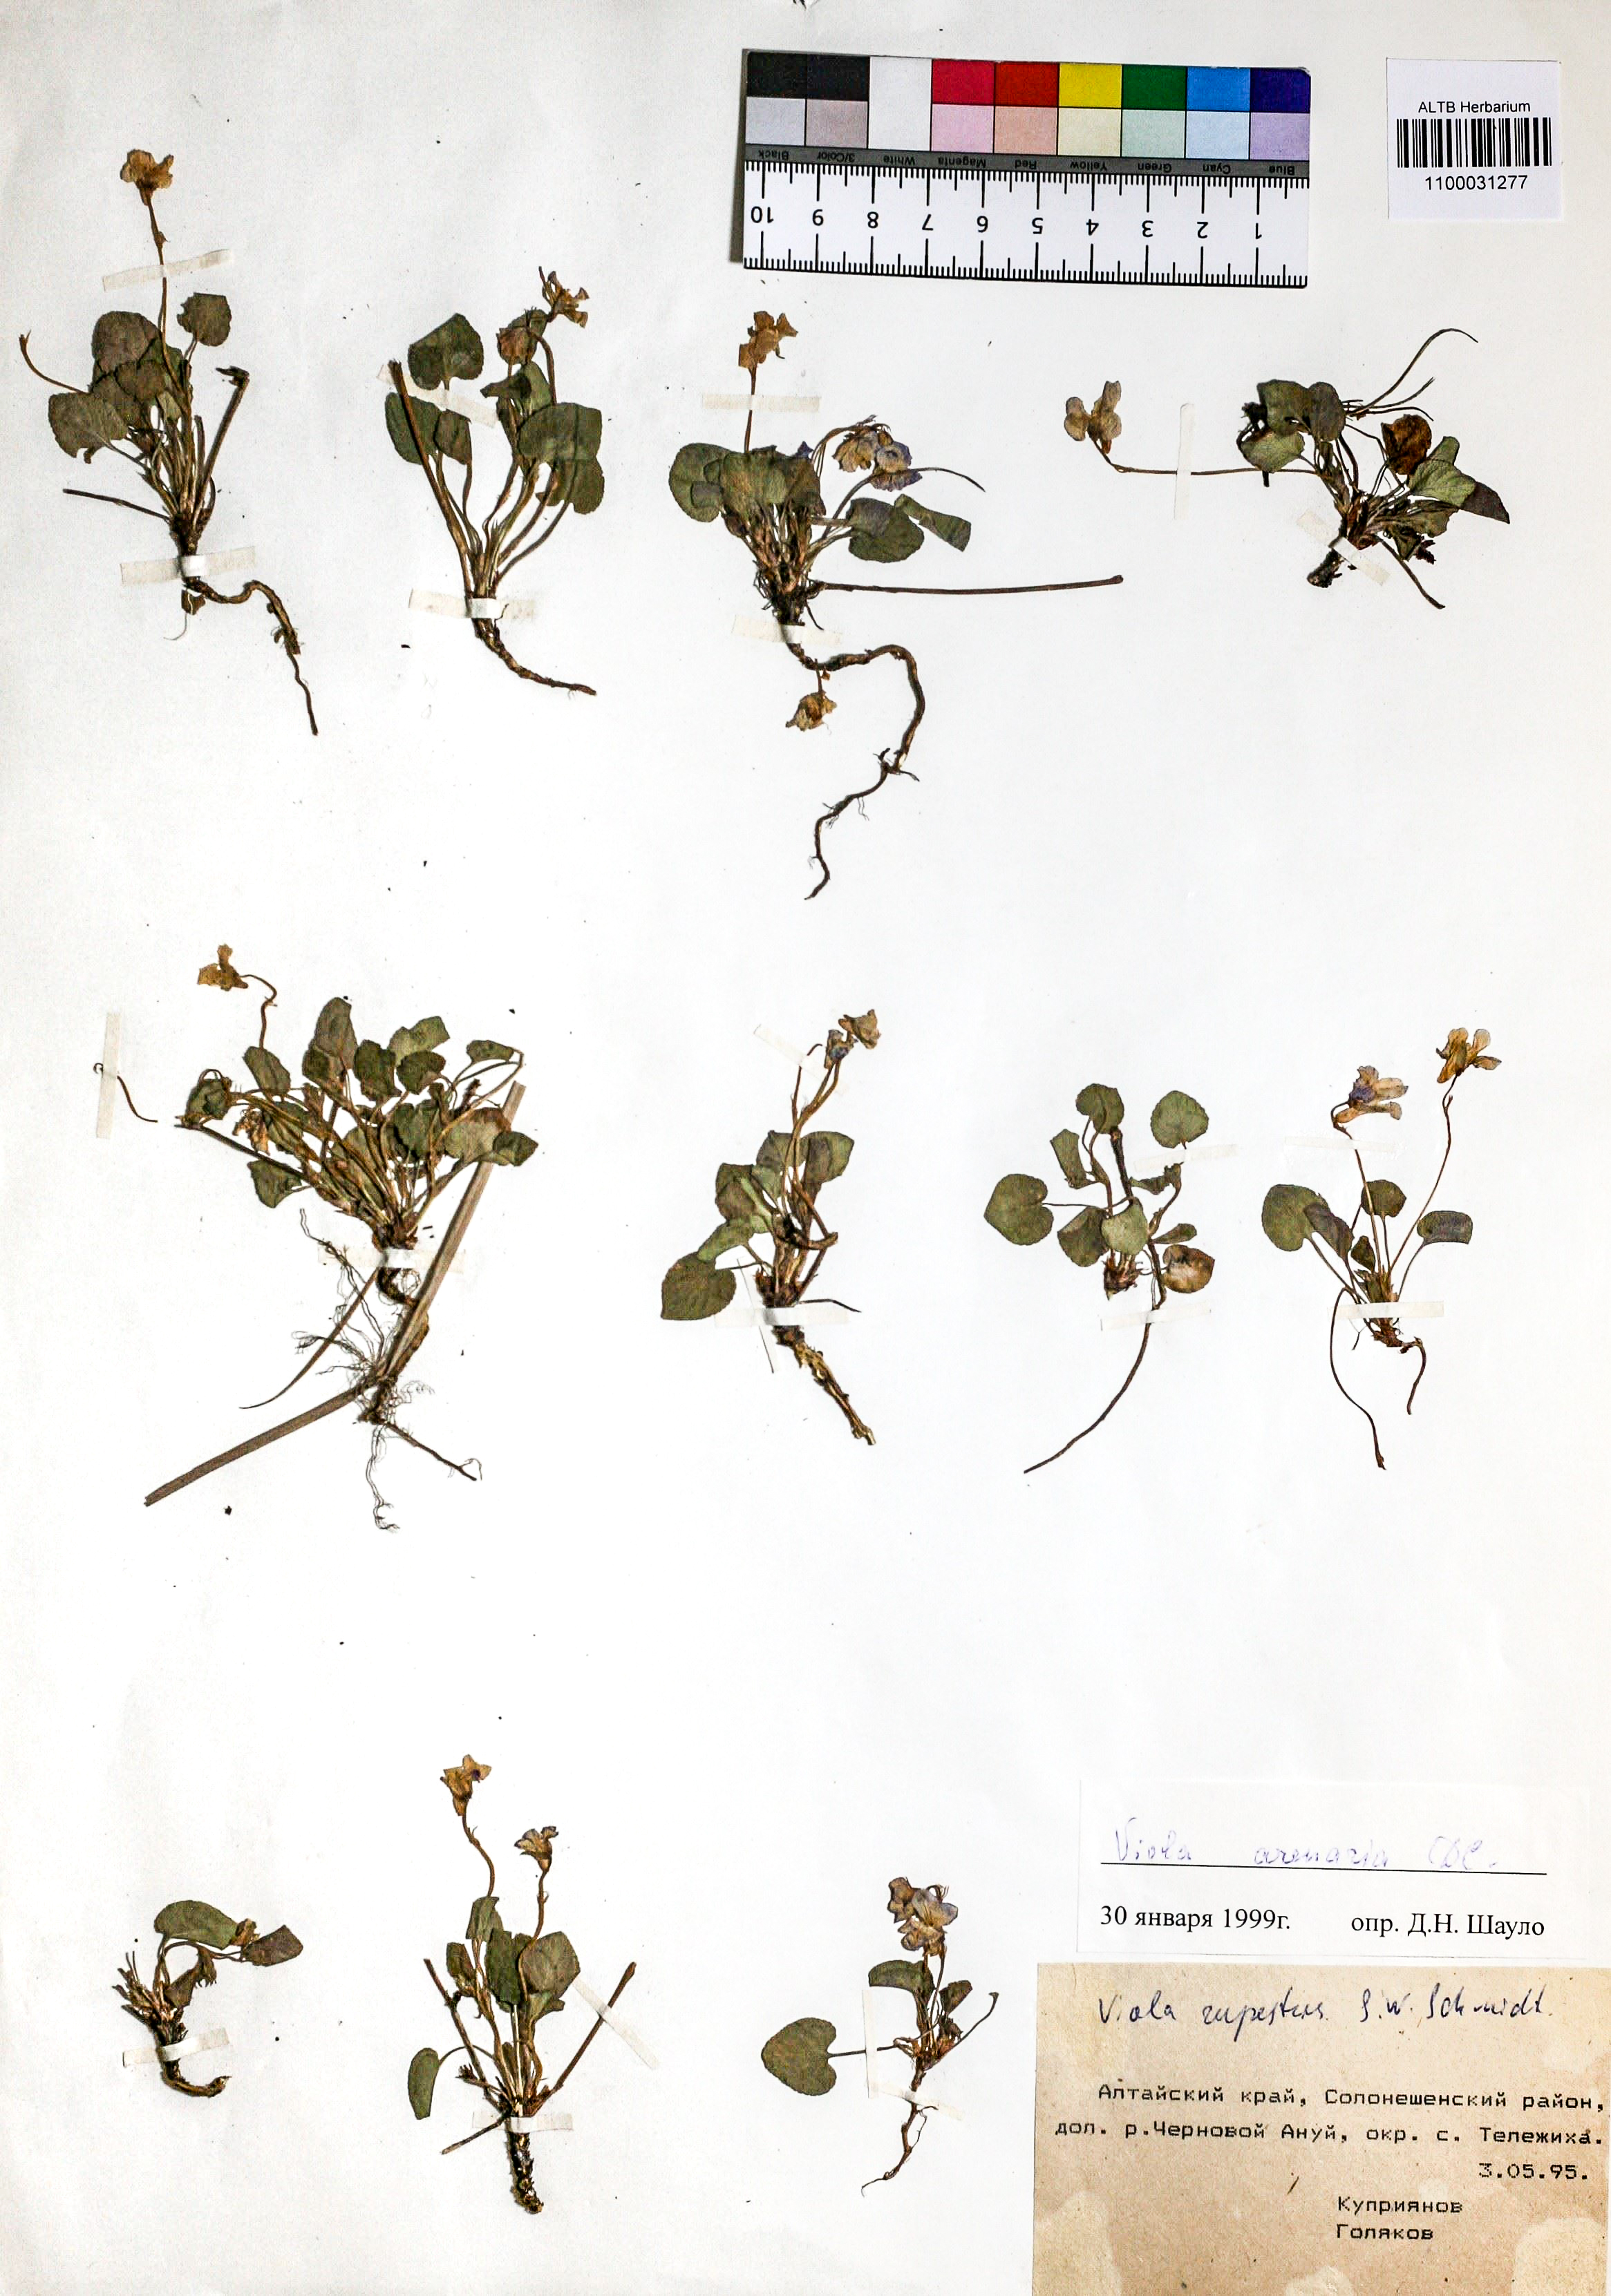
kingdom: Plantae
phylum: Tracheophyta
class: Magnoliopsida
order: Malpighiales
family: Violaceae
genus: Viola
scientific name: Viola rupestris
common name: Teesdale violet
